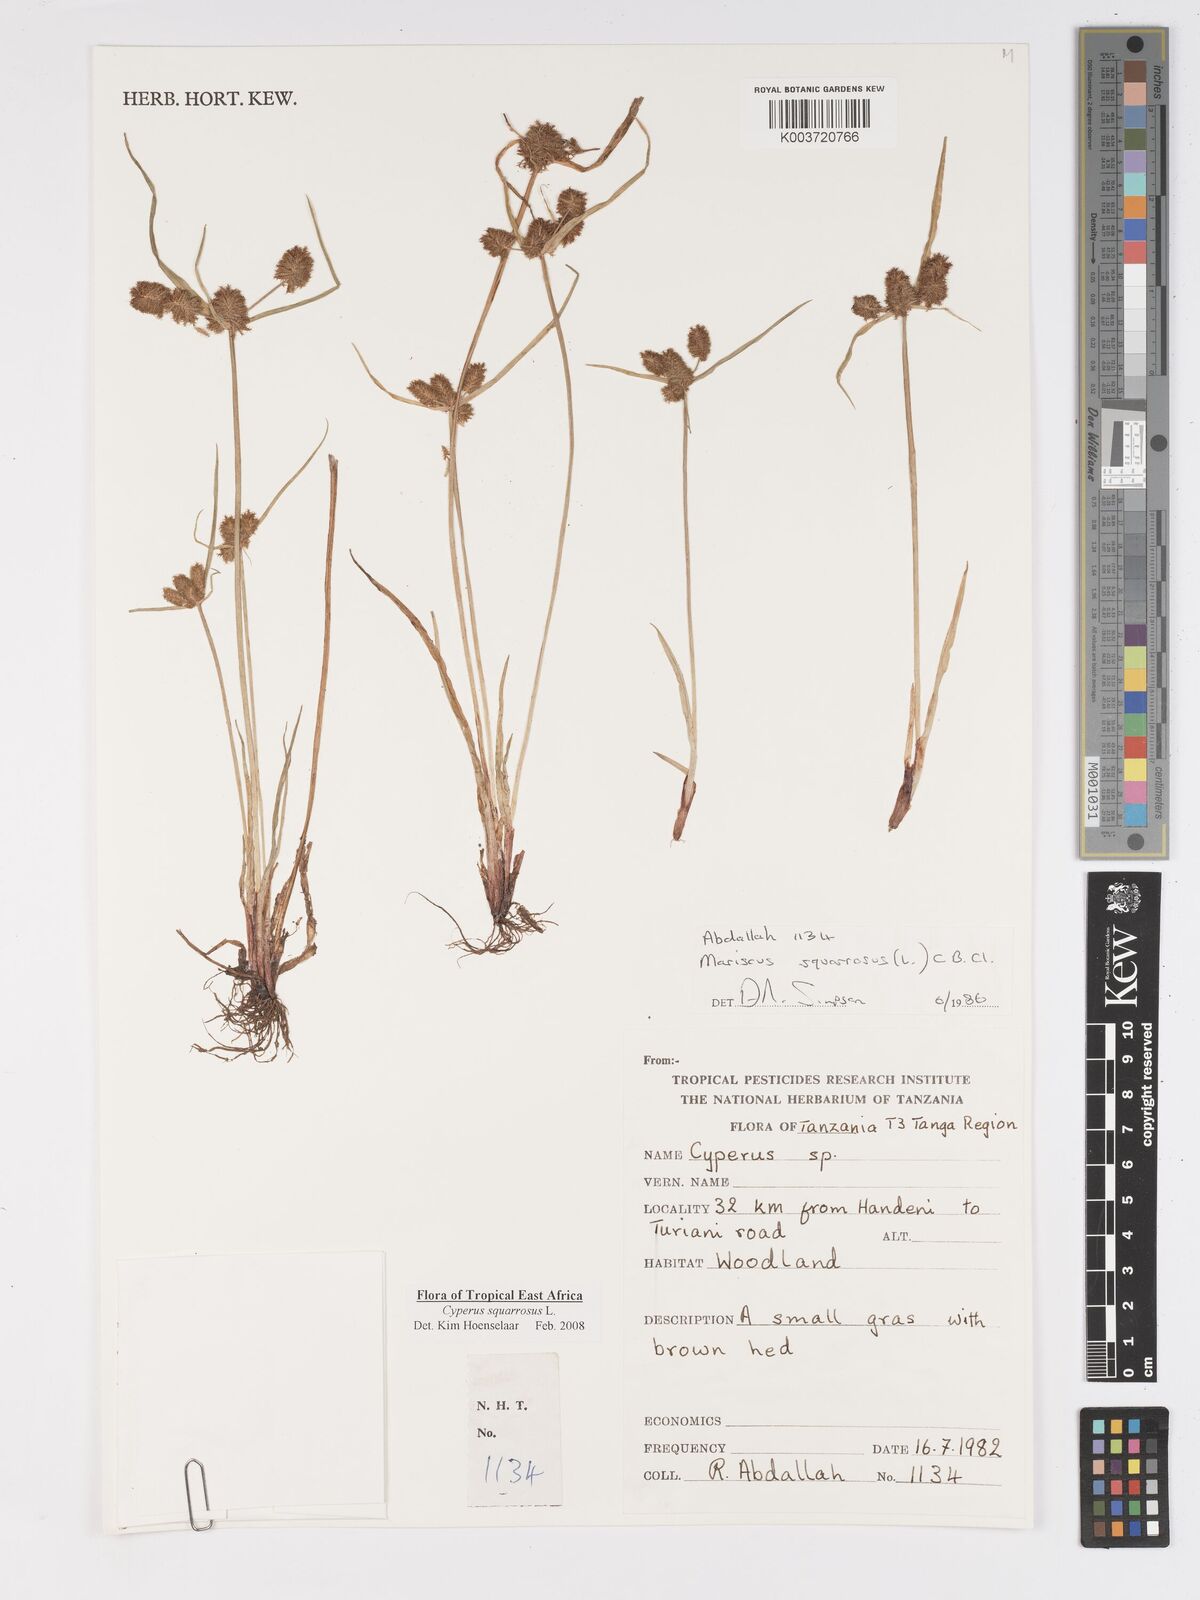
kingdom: Plantae
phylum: Tracheophyta
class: Liliopsida
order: Poales
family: Cyperaceae
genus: Cyperus
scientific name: Cyperus squarrosus
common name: Awned cyperus
